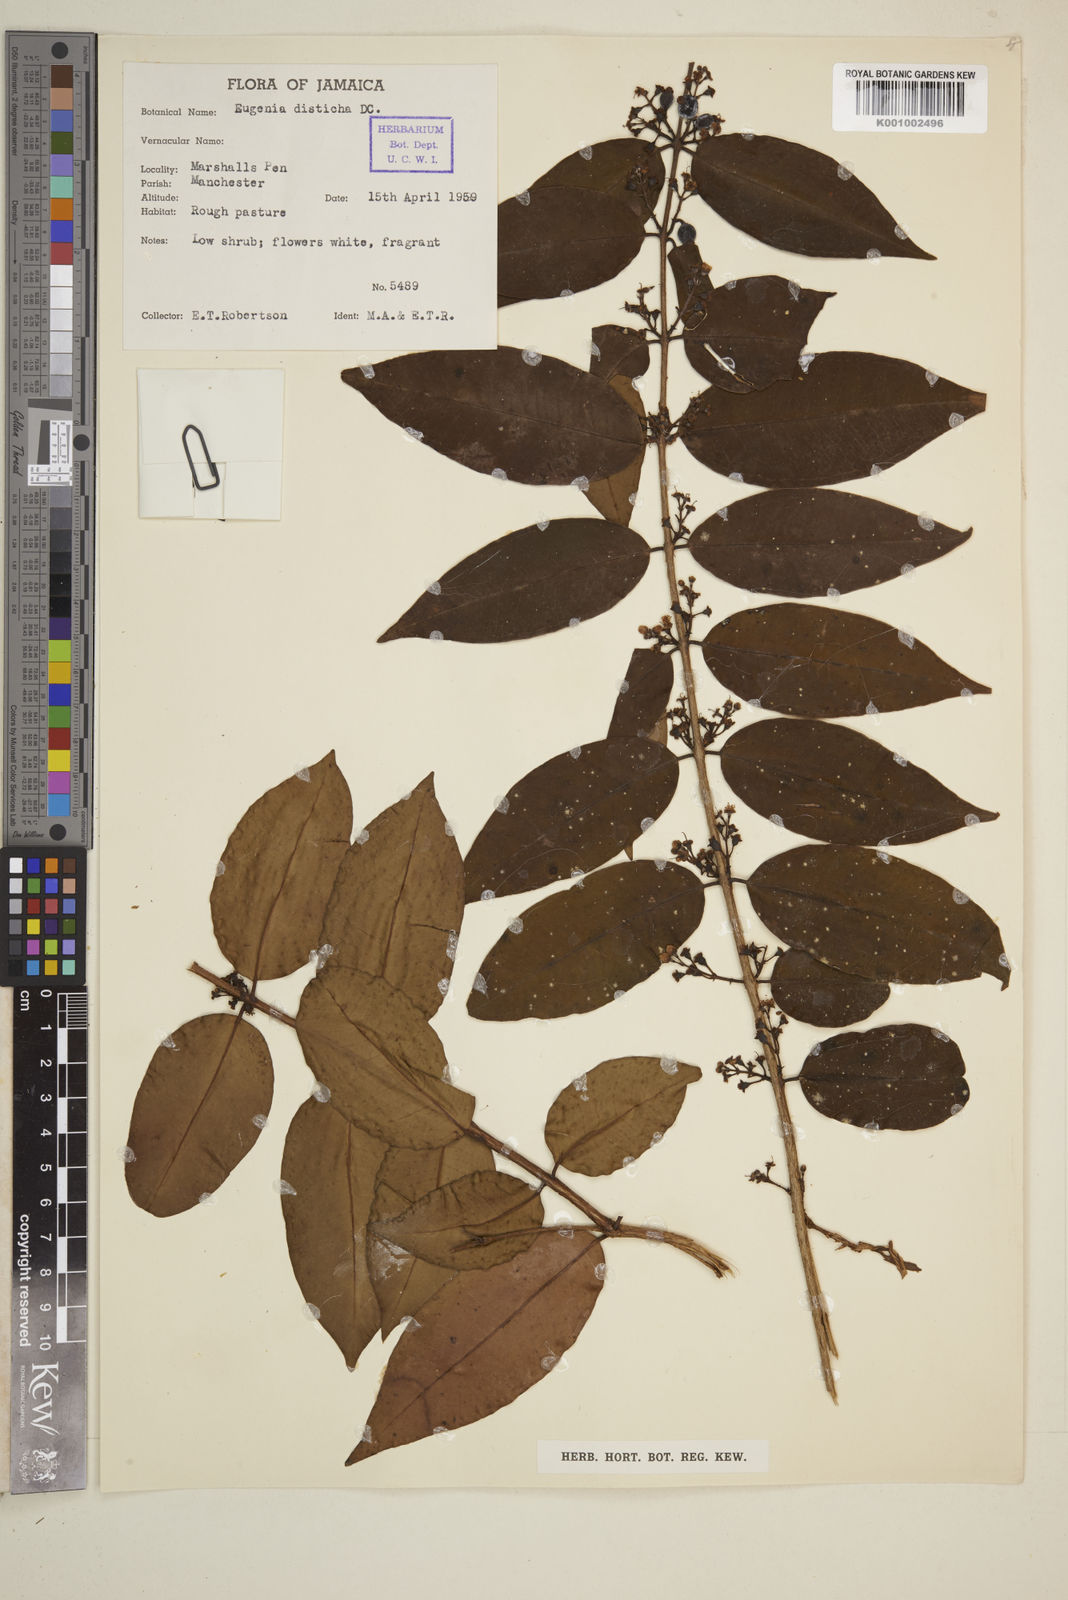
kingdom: Plantae
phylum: Tracheophyta
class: Magnoliopsida
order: Myrtales
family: Myrtaceae
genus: Eugenia
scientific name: Eugenia disticha
